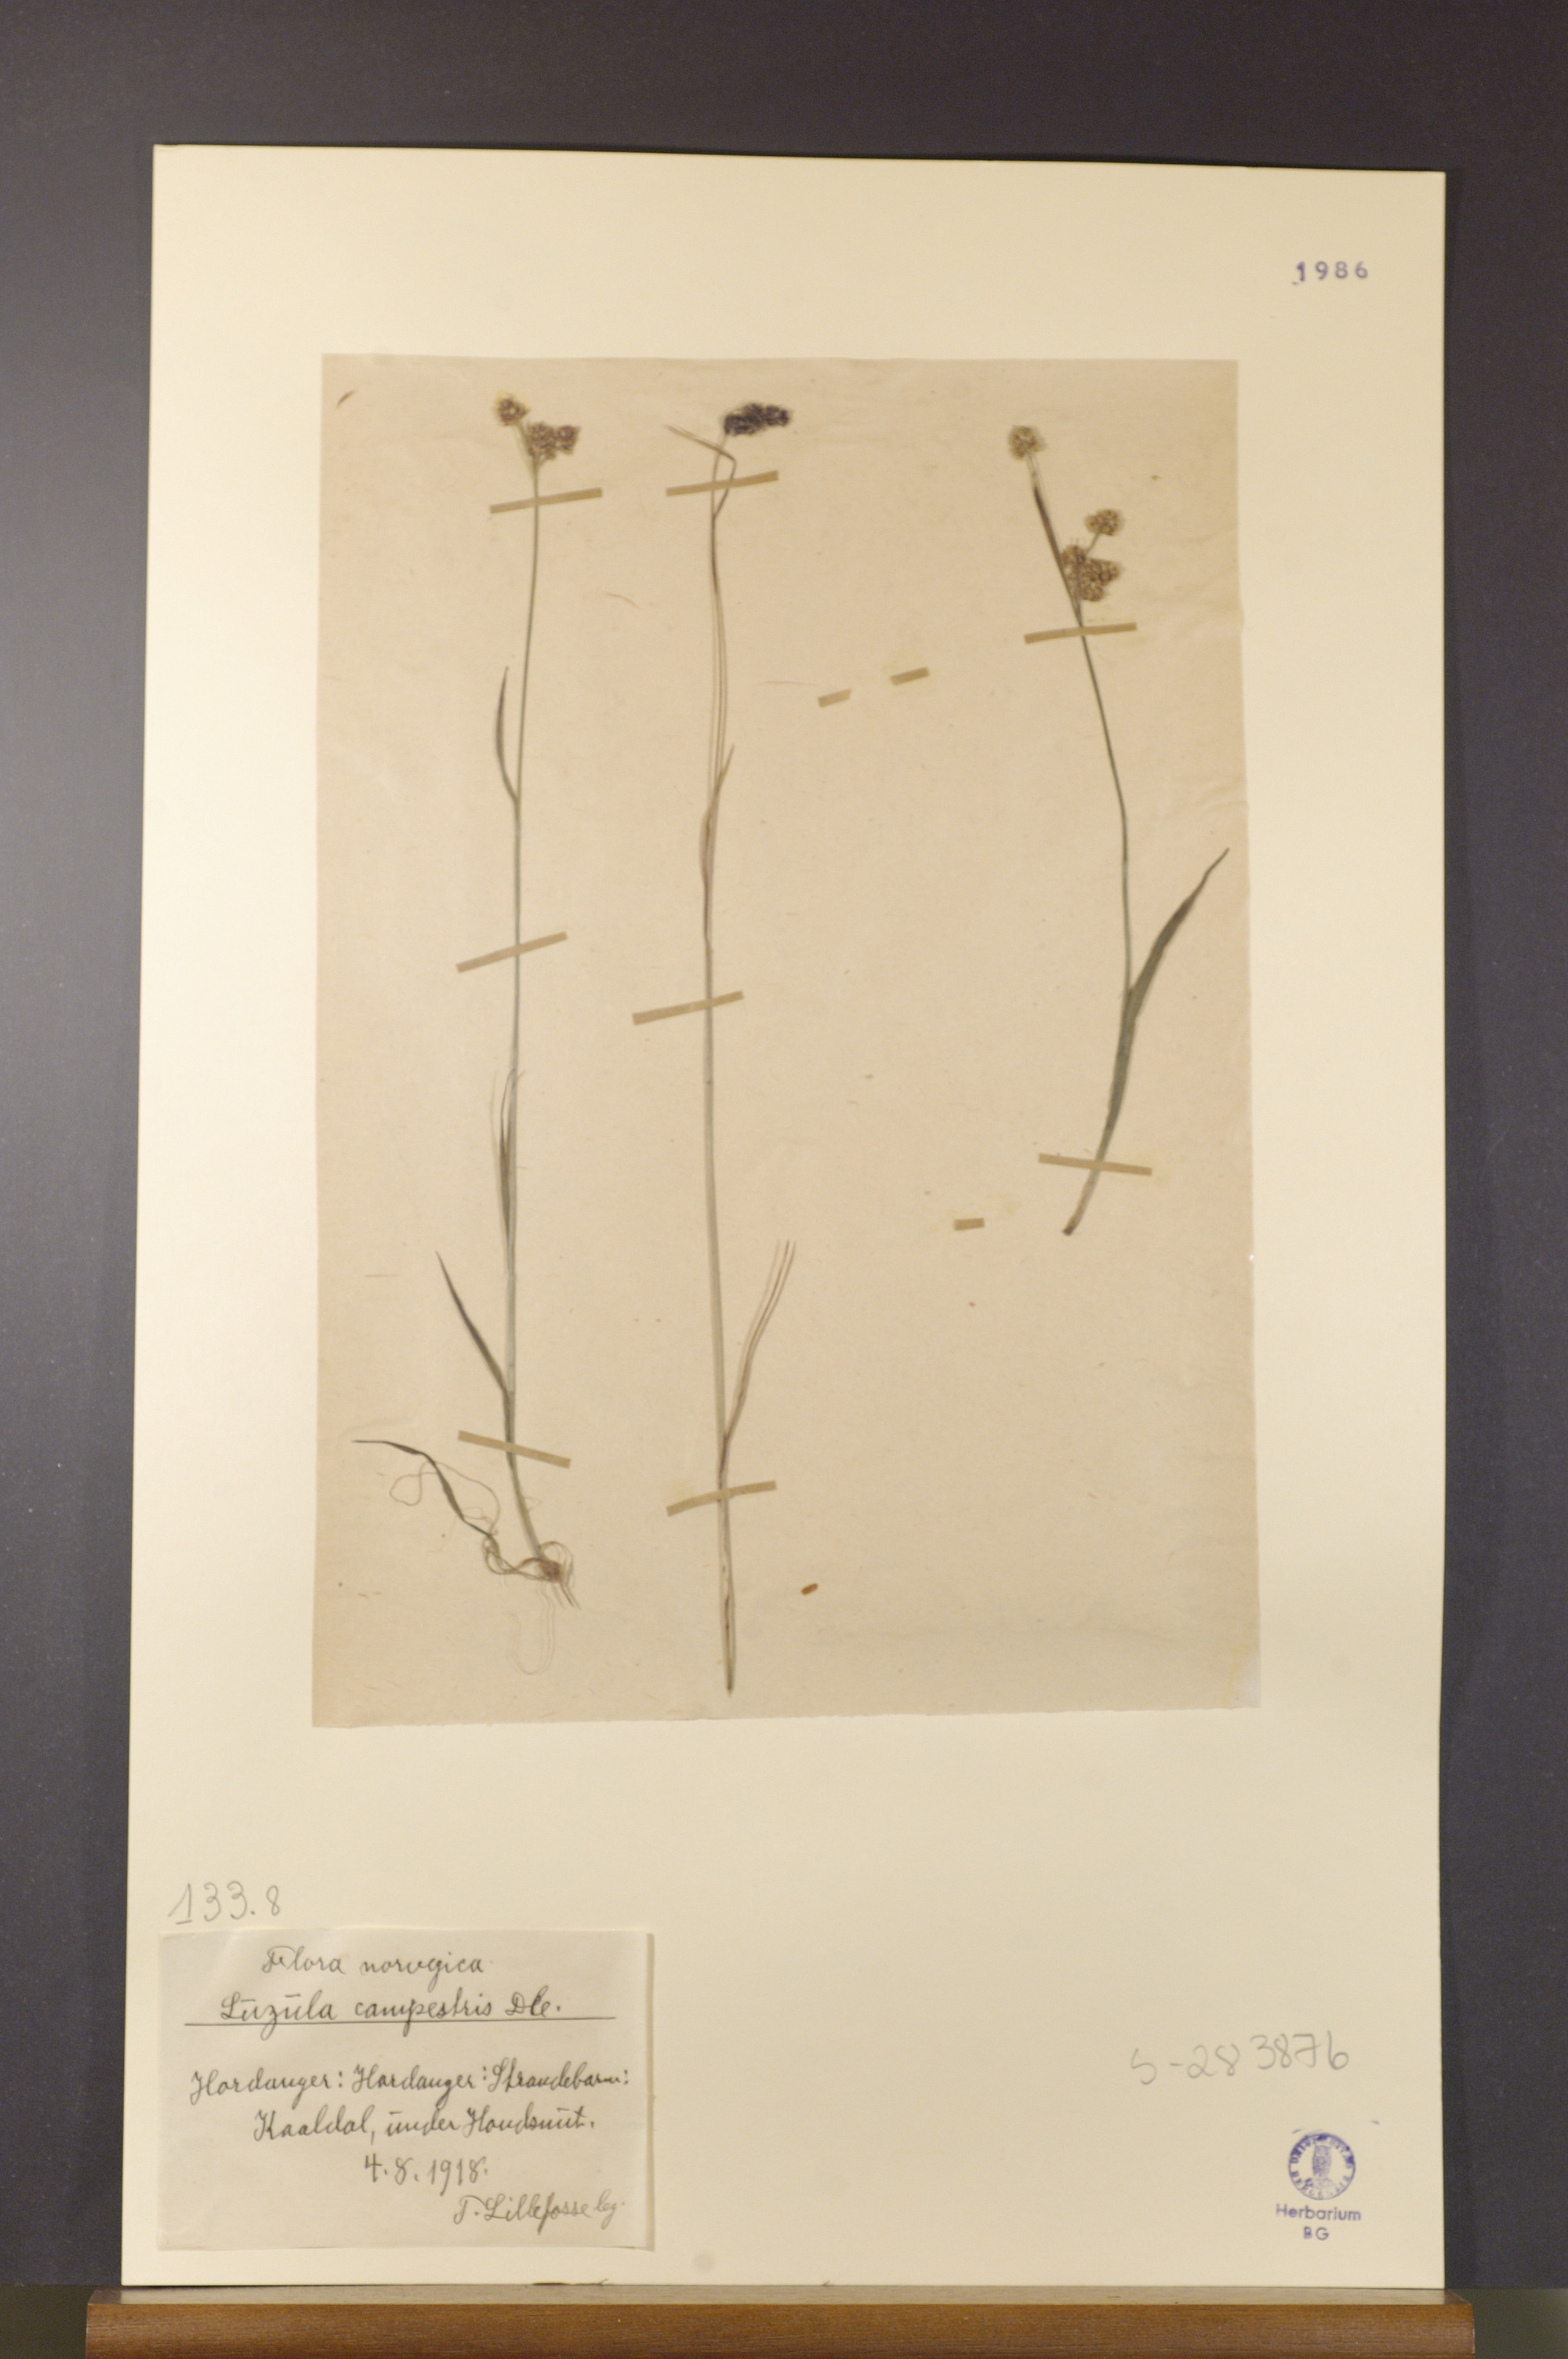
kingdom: Plantae
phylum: Tracheophyta
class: Liliopsida
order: Poales
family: Juncaceae
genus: Luzula
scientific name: Luzula campestris
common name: Field wood-rush
